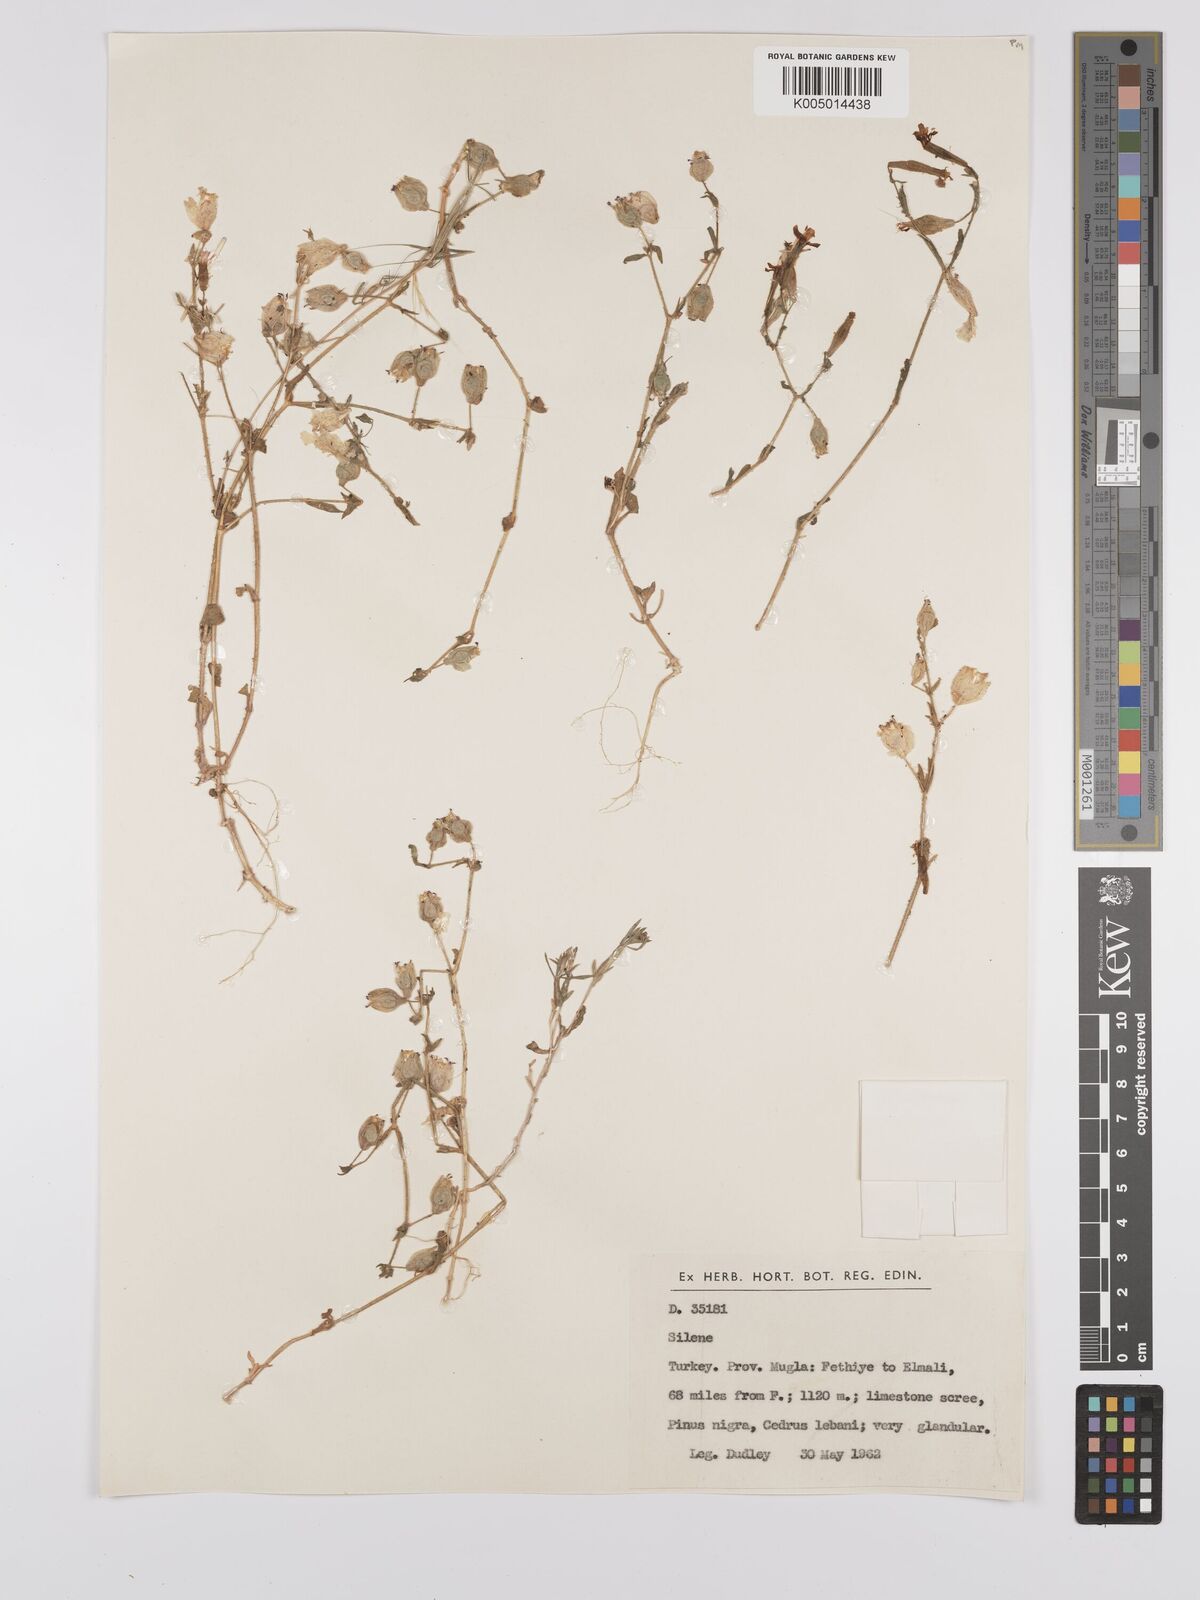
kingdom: Plantae
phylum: Tracheophyta
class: Magnoliopsida
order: Caryophyllales
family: Caryophyllaceae
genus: Silene
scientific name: Silene
